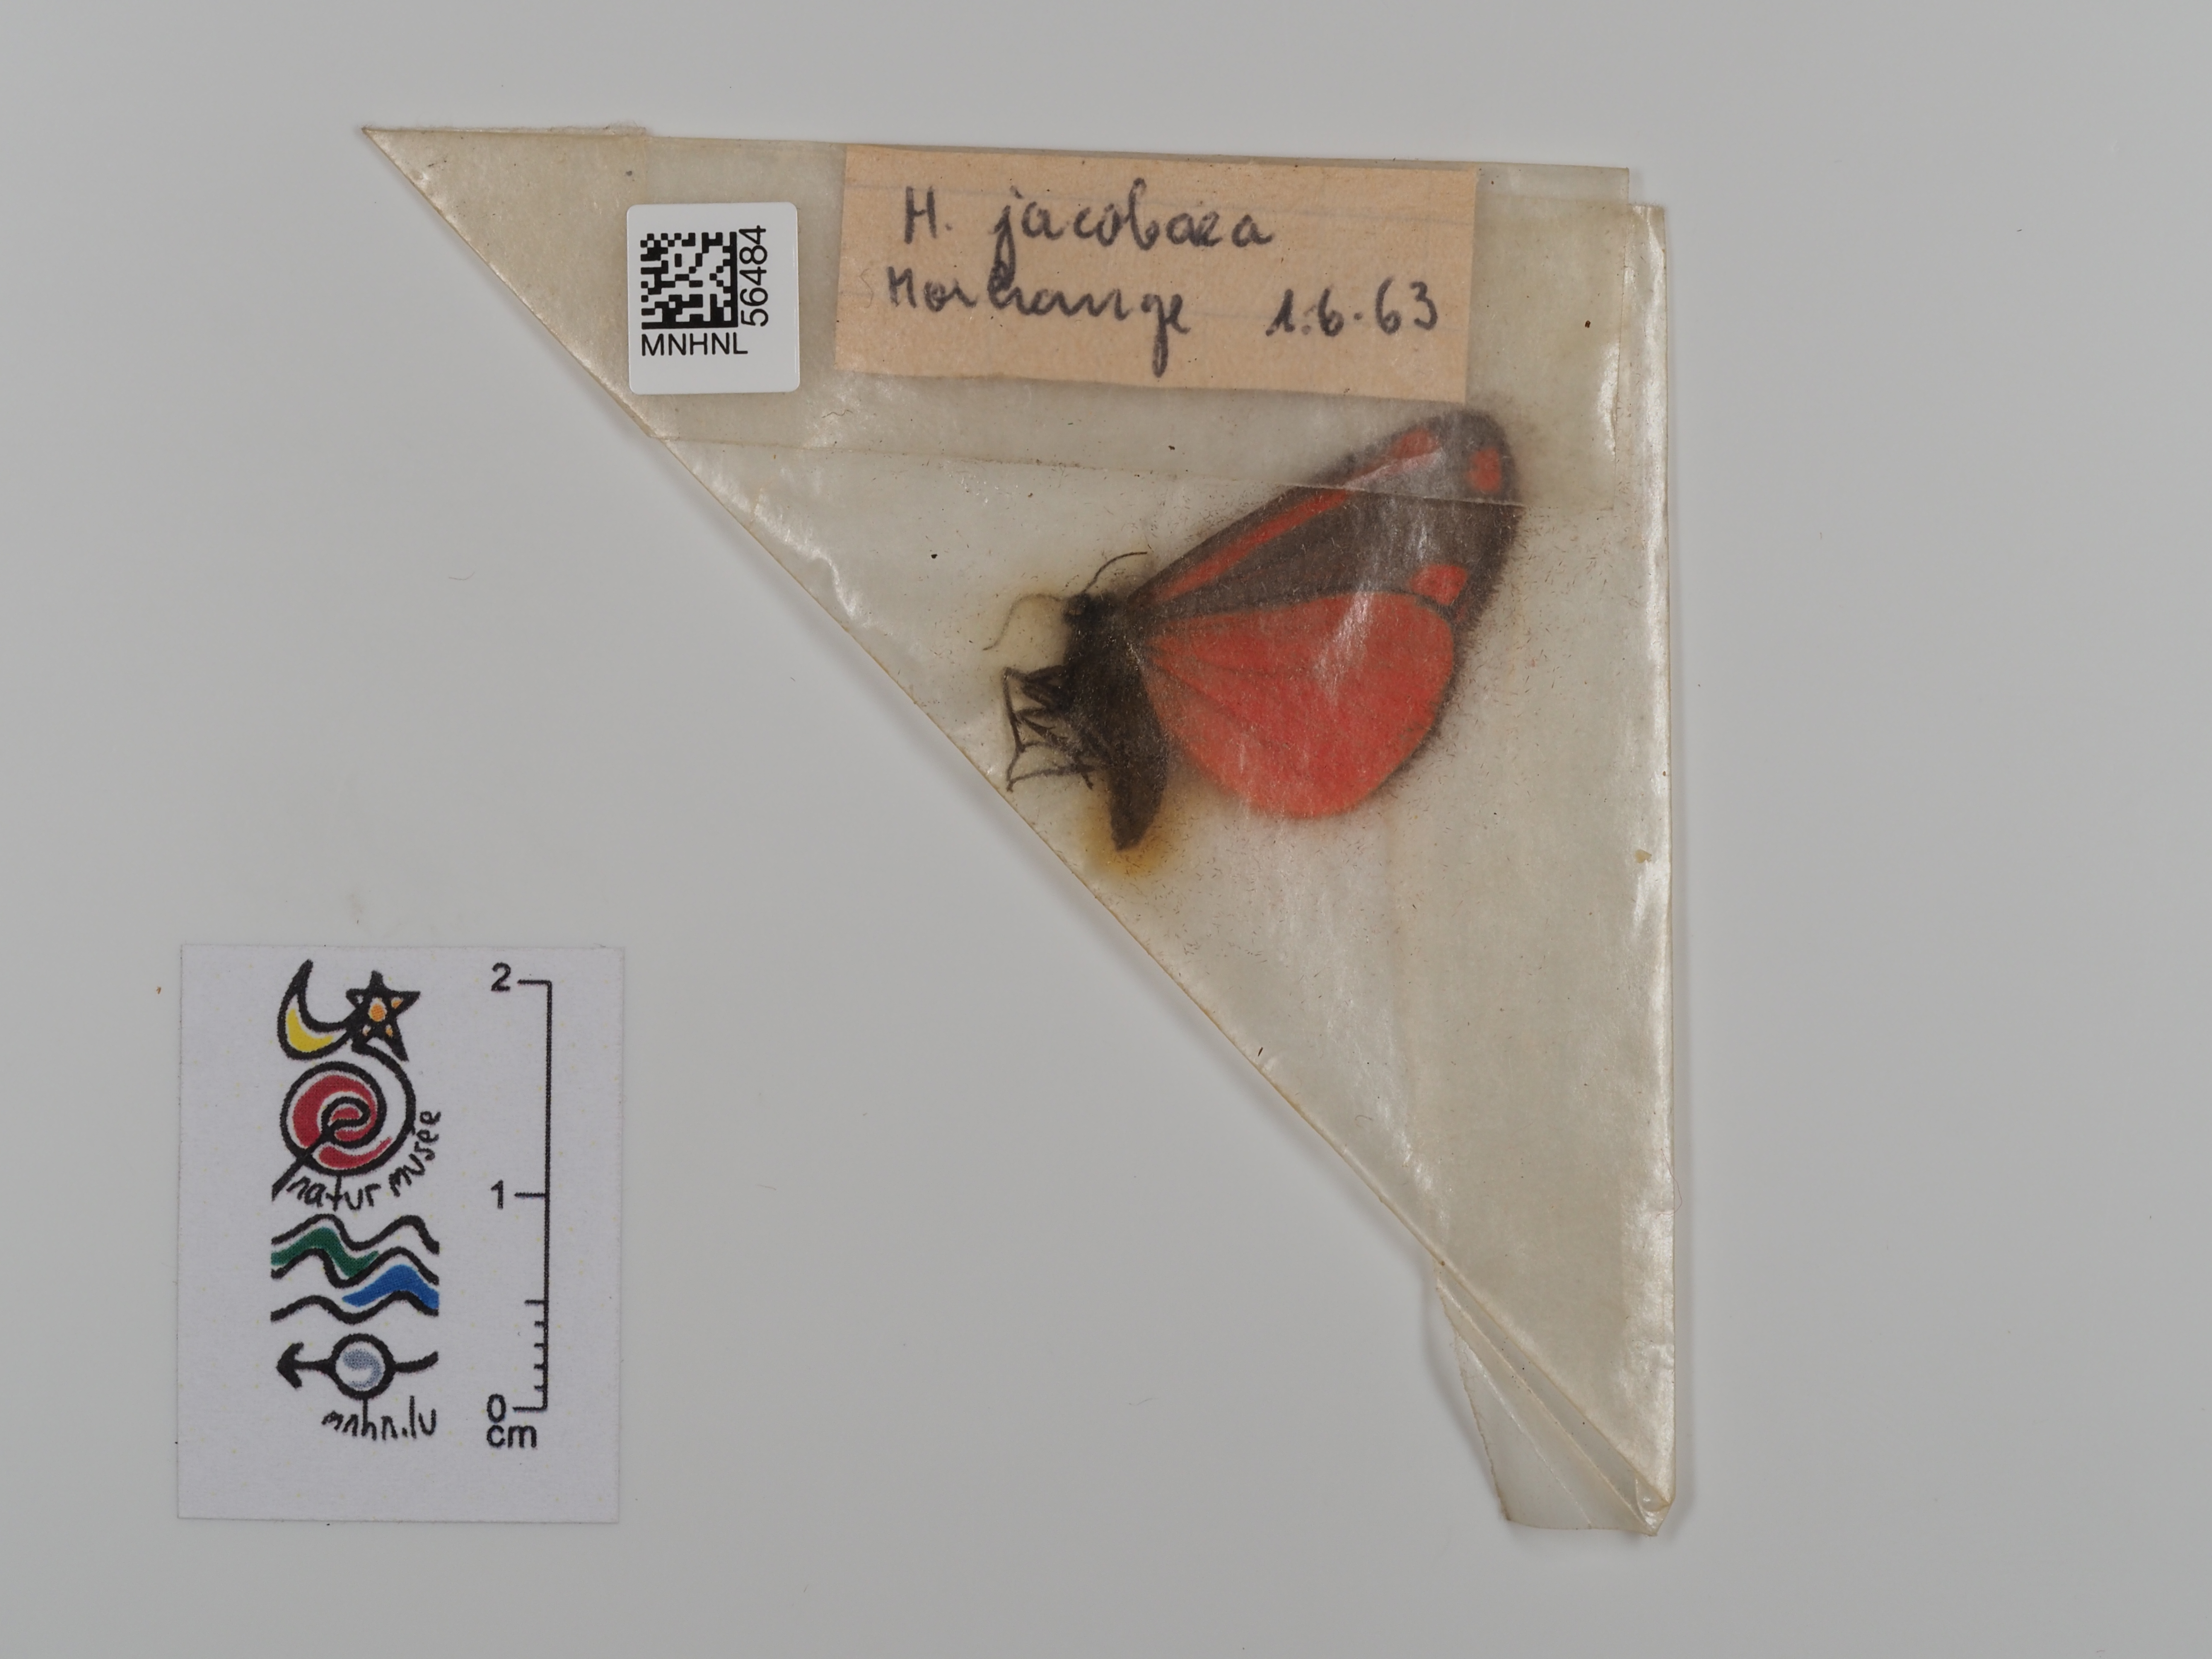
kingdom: Animalia
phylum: Arthropoda
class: Insecta
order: Lepidoptera
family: Erebidae
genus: Tyria
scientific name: Tyria jacobaeae
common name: Cinnabar
